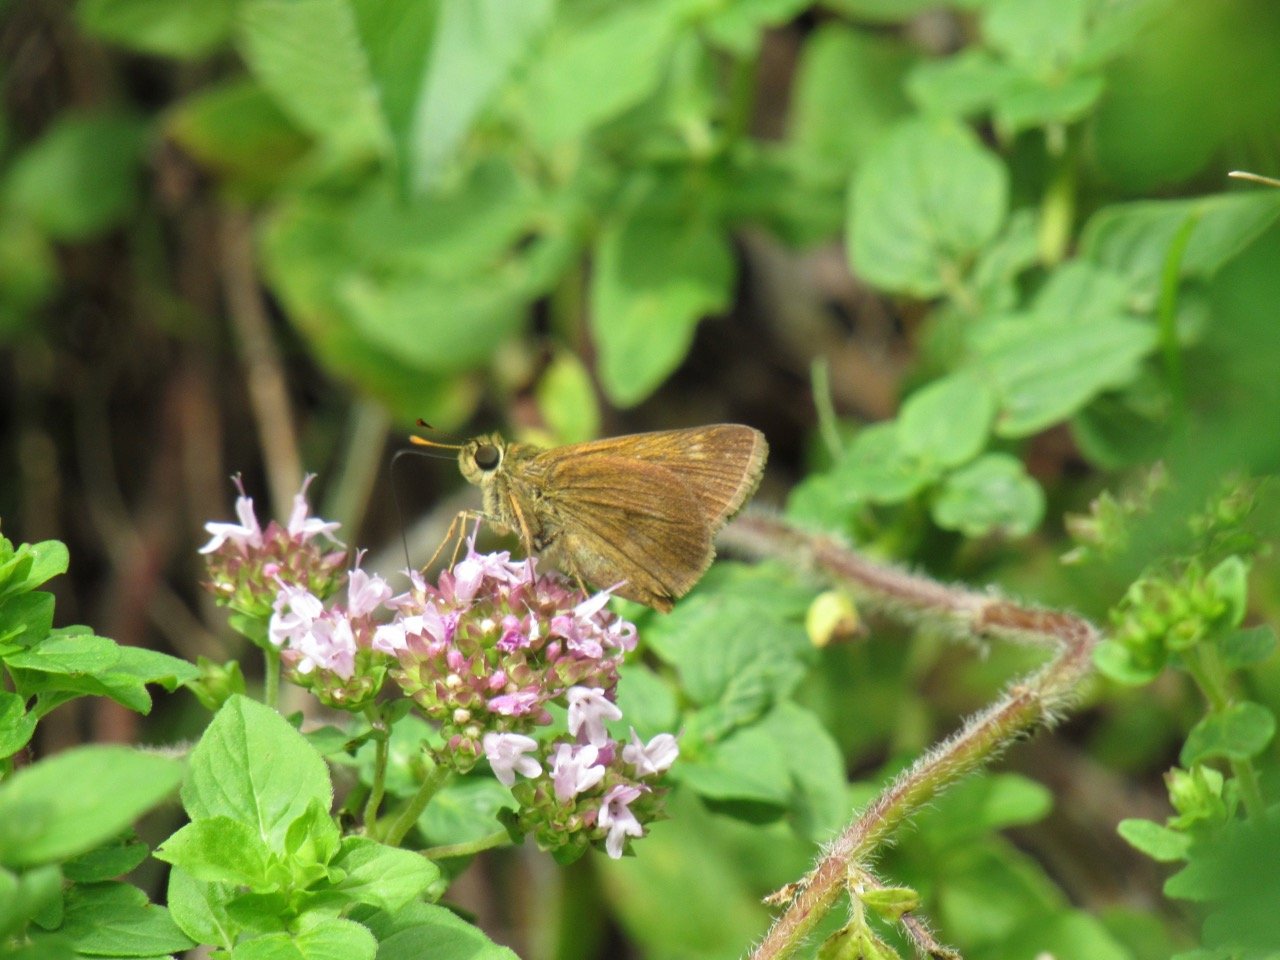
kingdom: Animalia
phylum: Arthropoda
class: Insecta
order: Lepidoptera
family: Hesperiidae
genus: Polites
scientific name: Polites themistocles
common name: Tawny-edged Skipper
